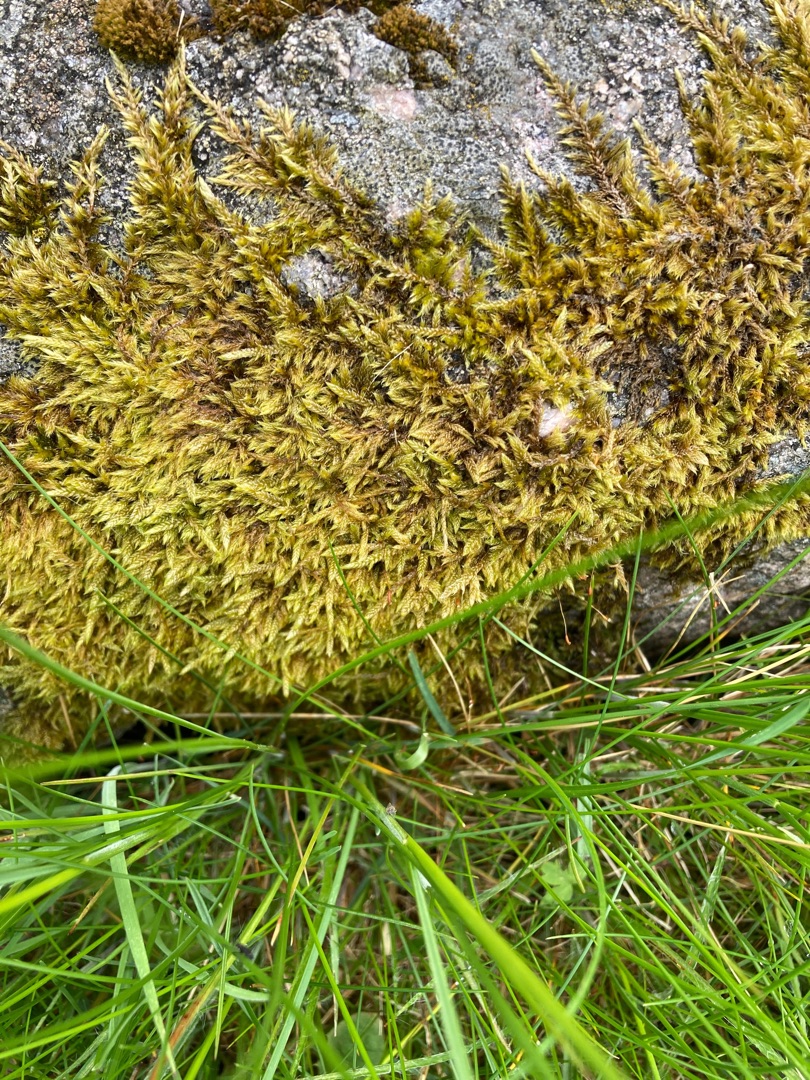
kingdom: Plantae
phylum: Bryophyta
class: Bryopsida
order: Hypnales
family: Hypnaceae
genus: Hypnum
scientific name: Hypnum cupressiforme
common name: Almindelig cypresmos
